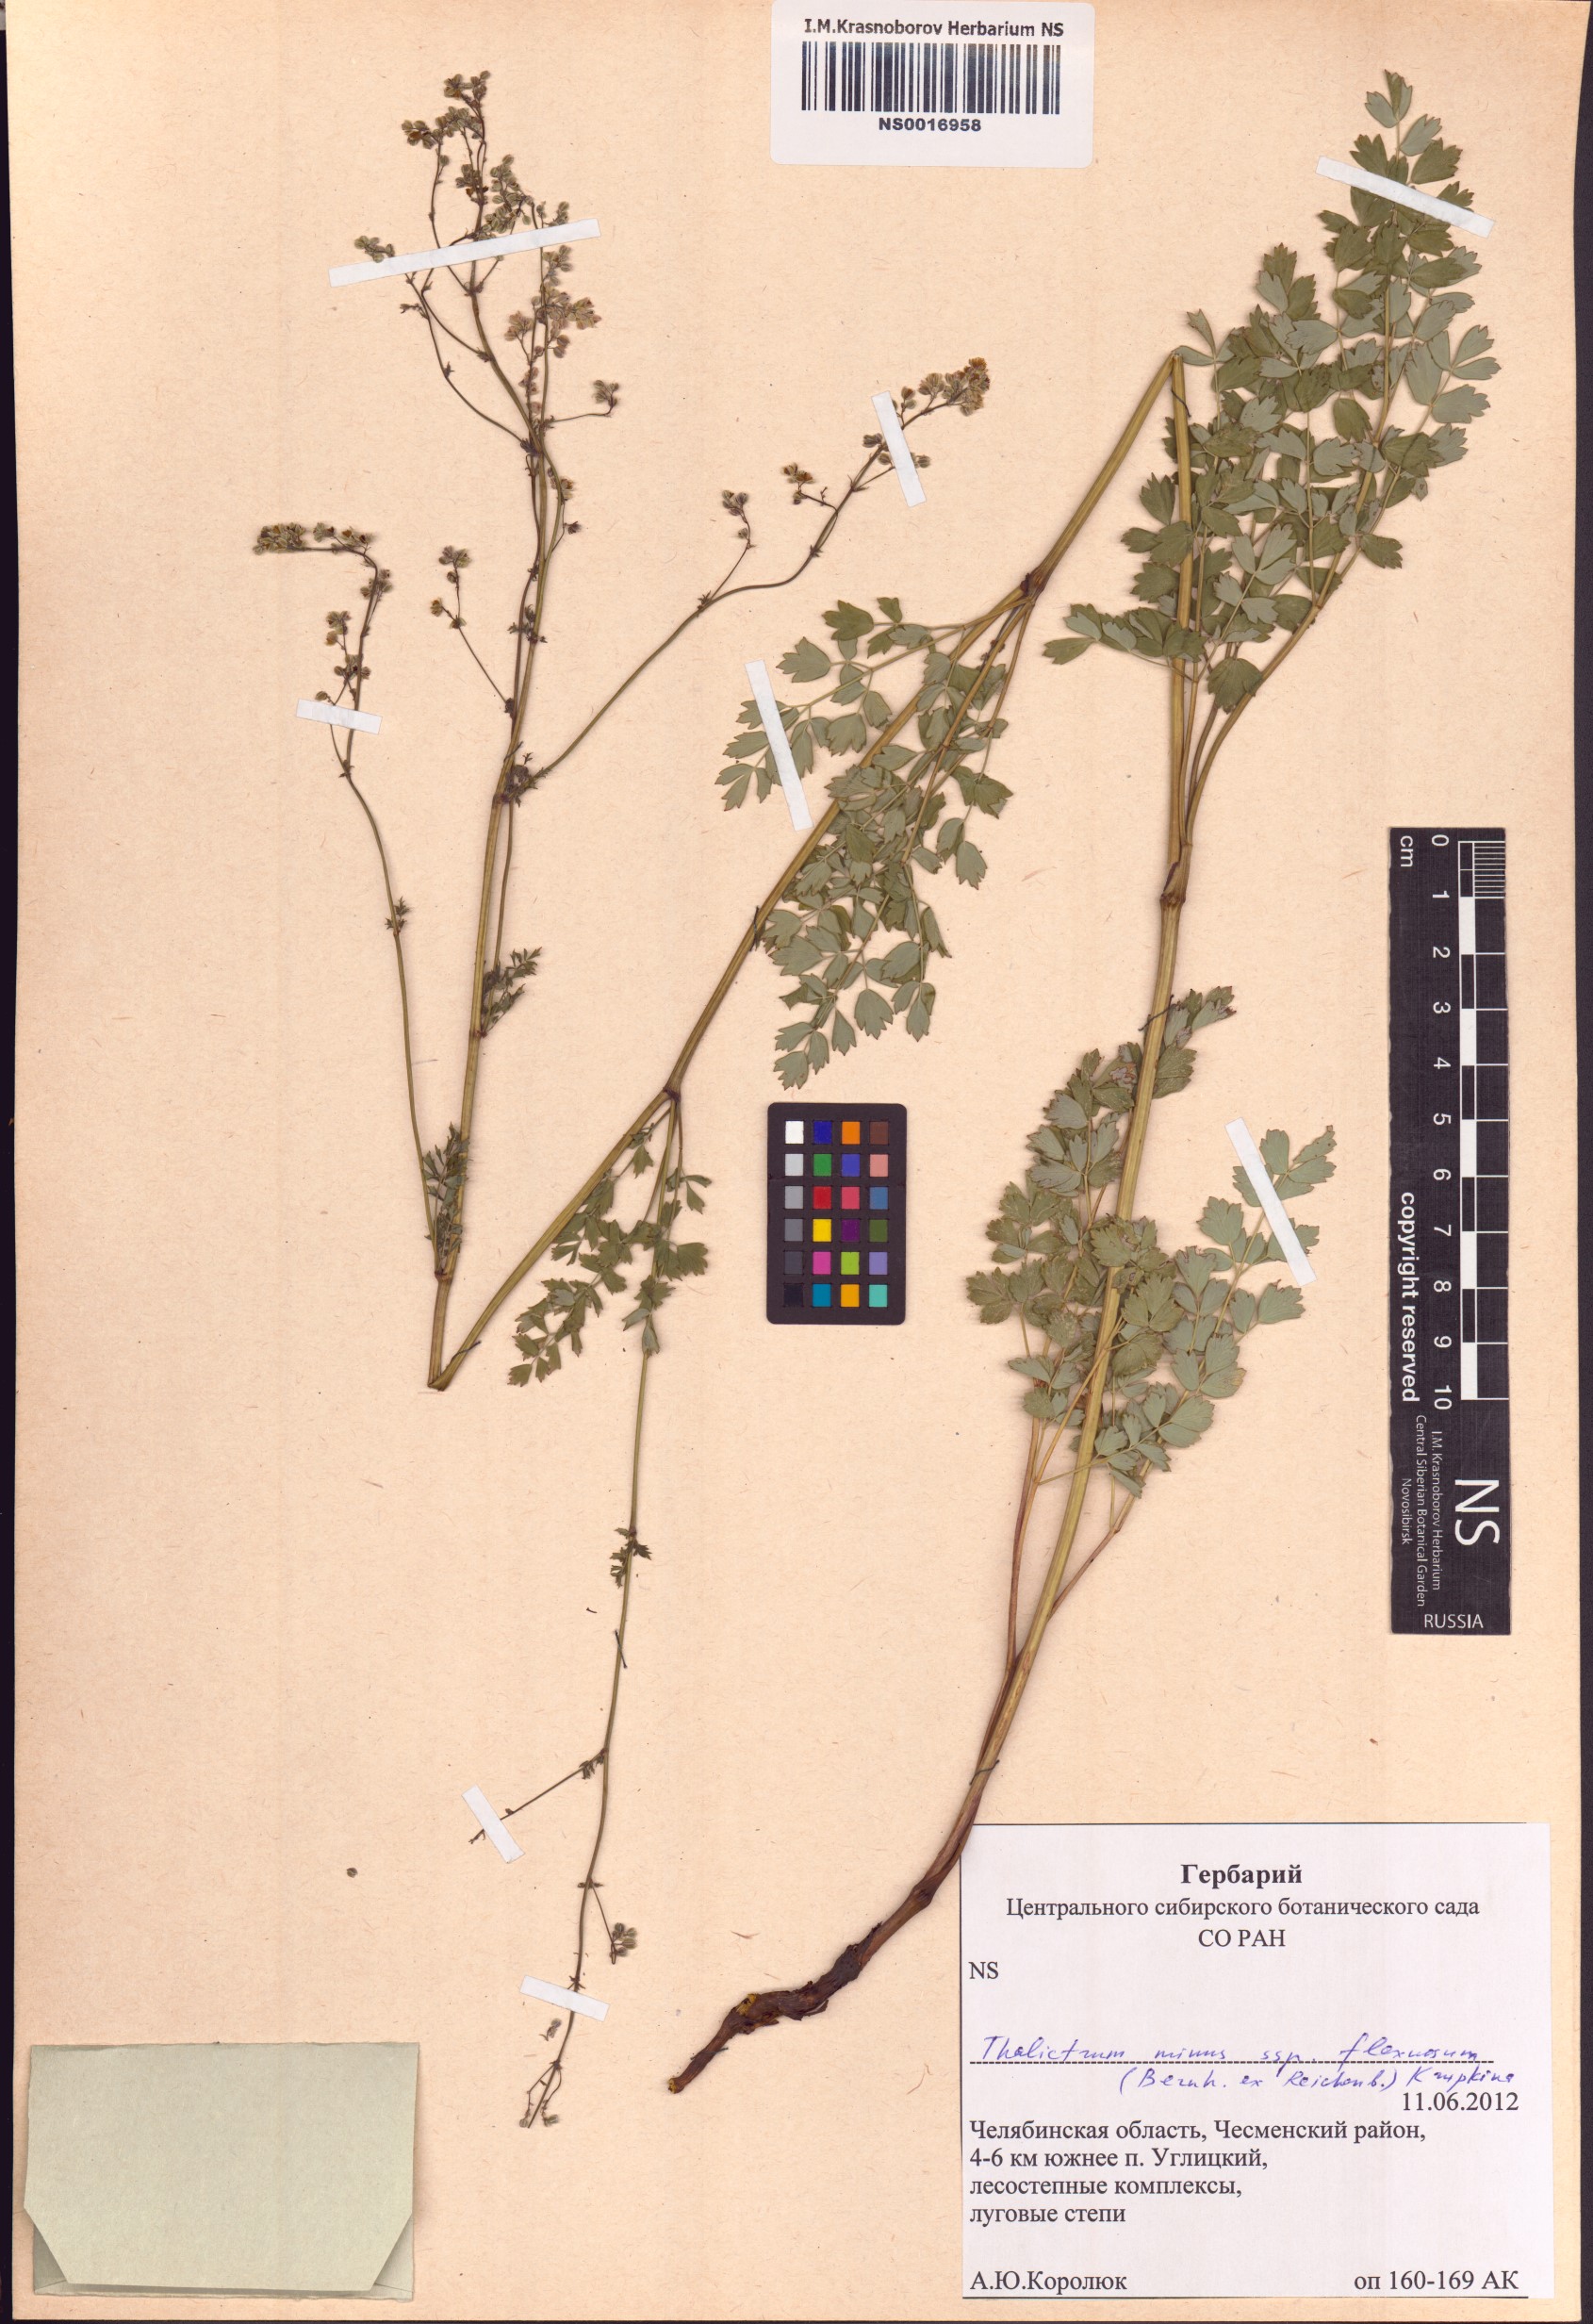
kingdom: Plantae
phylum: Tracheophyta
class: Magnoliopsida
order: Ranunculales
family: Ranunculaceae
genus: Thalictrum
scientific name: Thalictrum simplex
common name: Small meadow-rue
